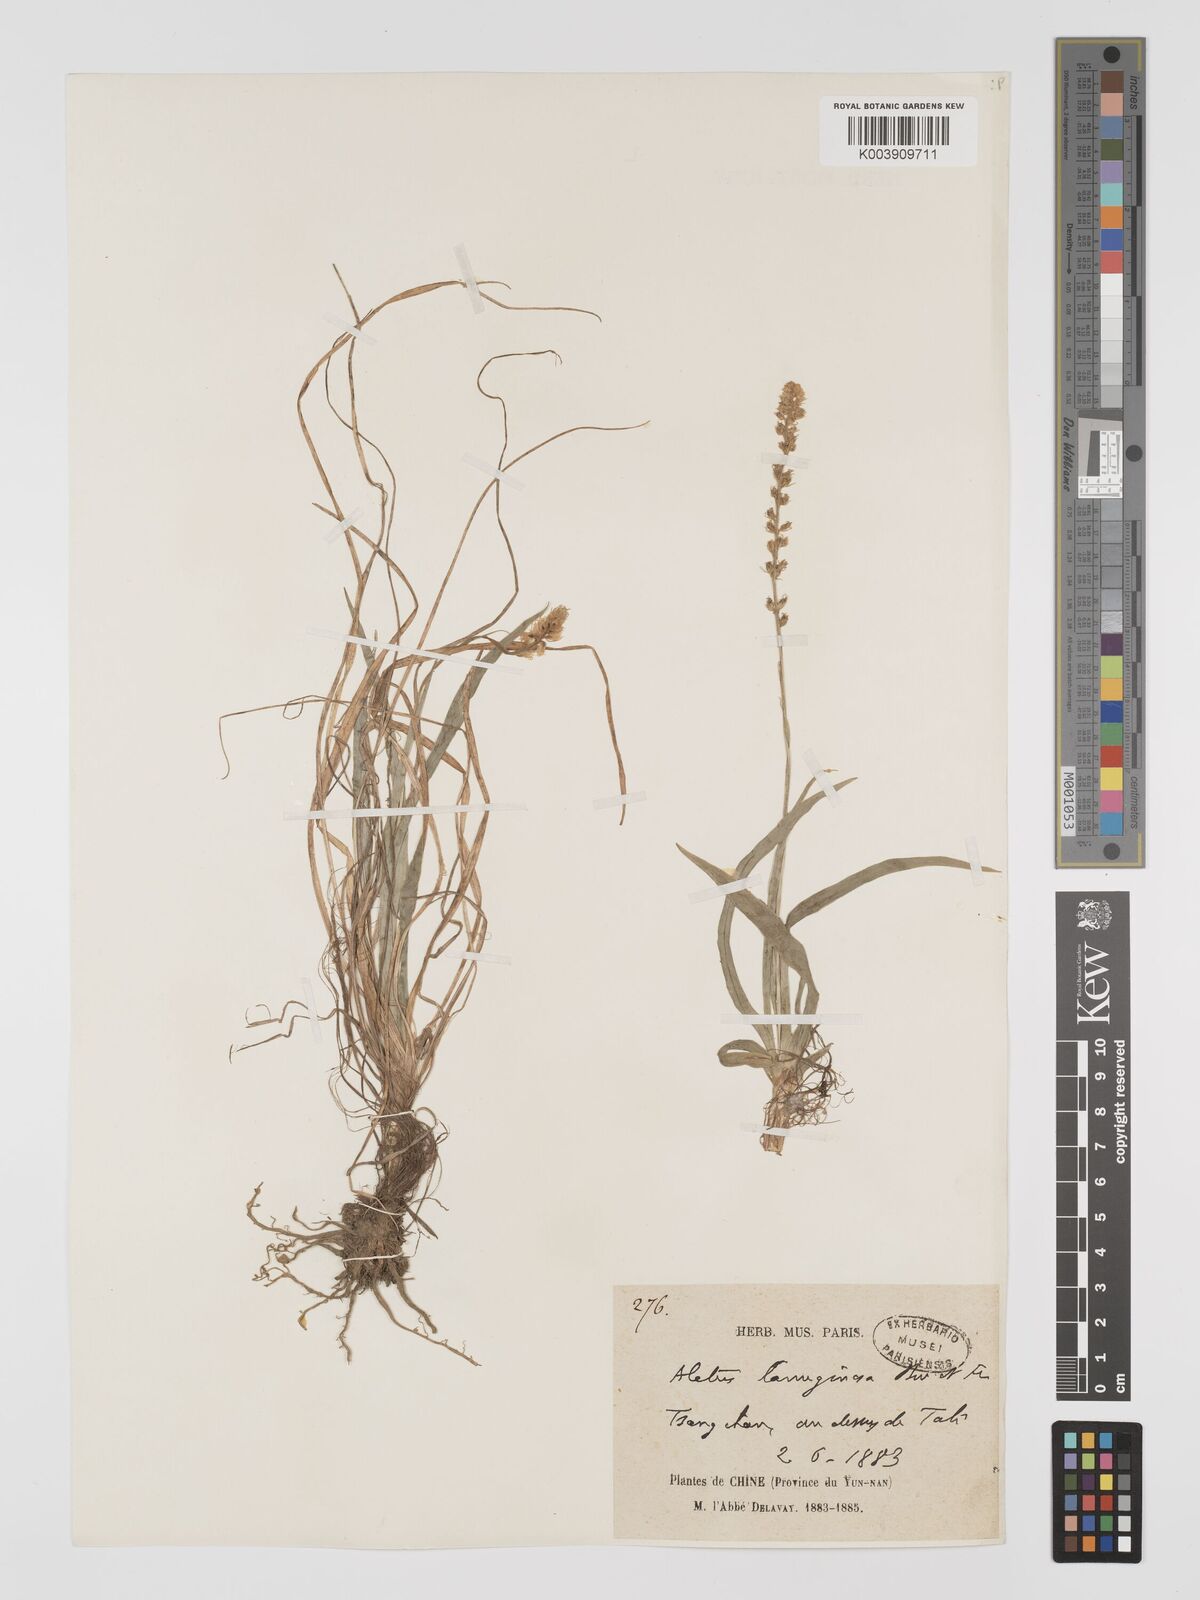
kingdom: Plantae
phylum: Tracheophyta
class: Liliopsida
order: Dioscoreales
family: Nartheciaceae
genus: Aletris
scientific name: Aletris pauciflora
